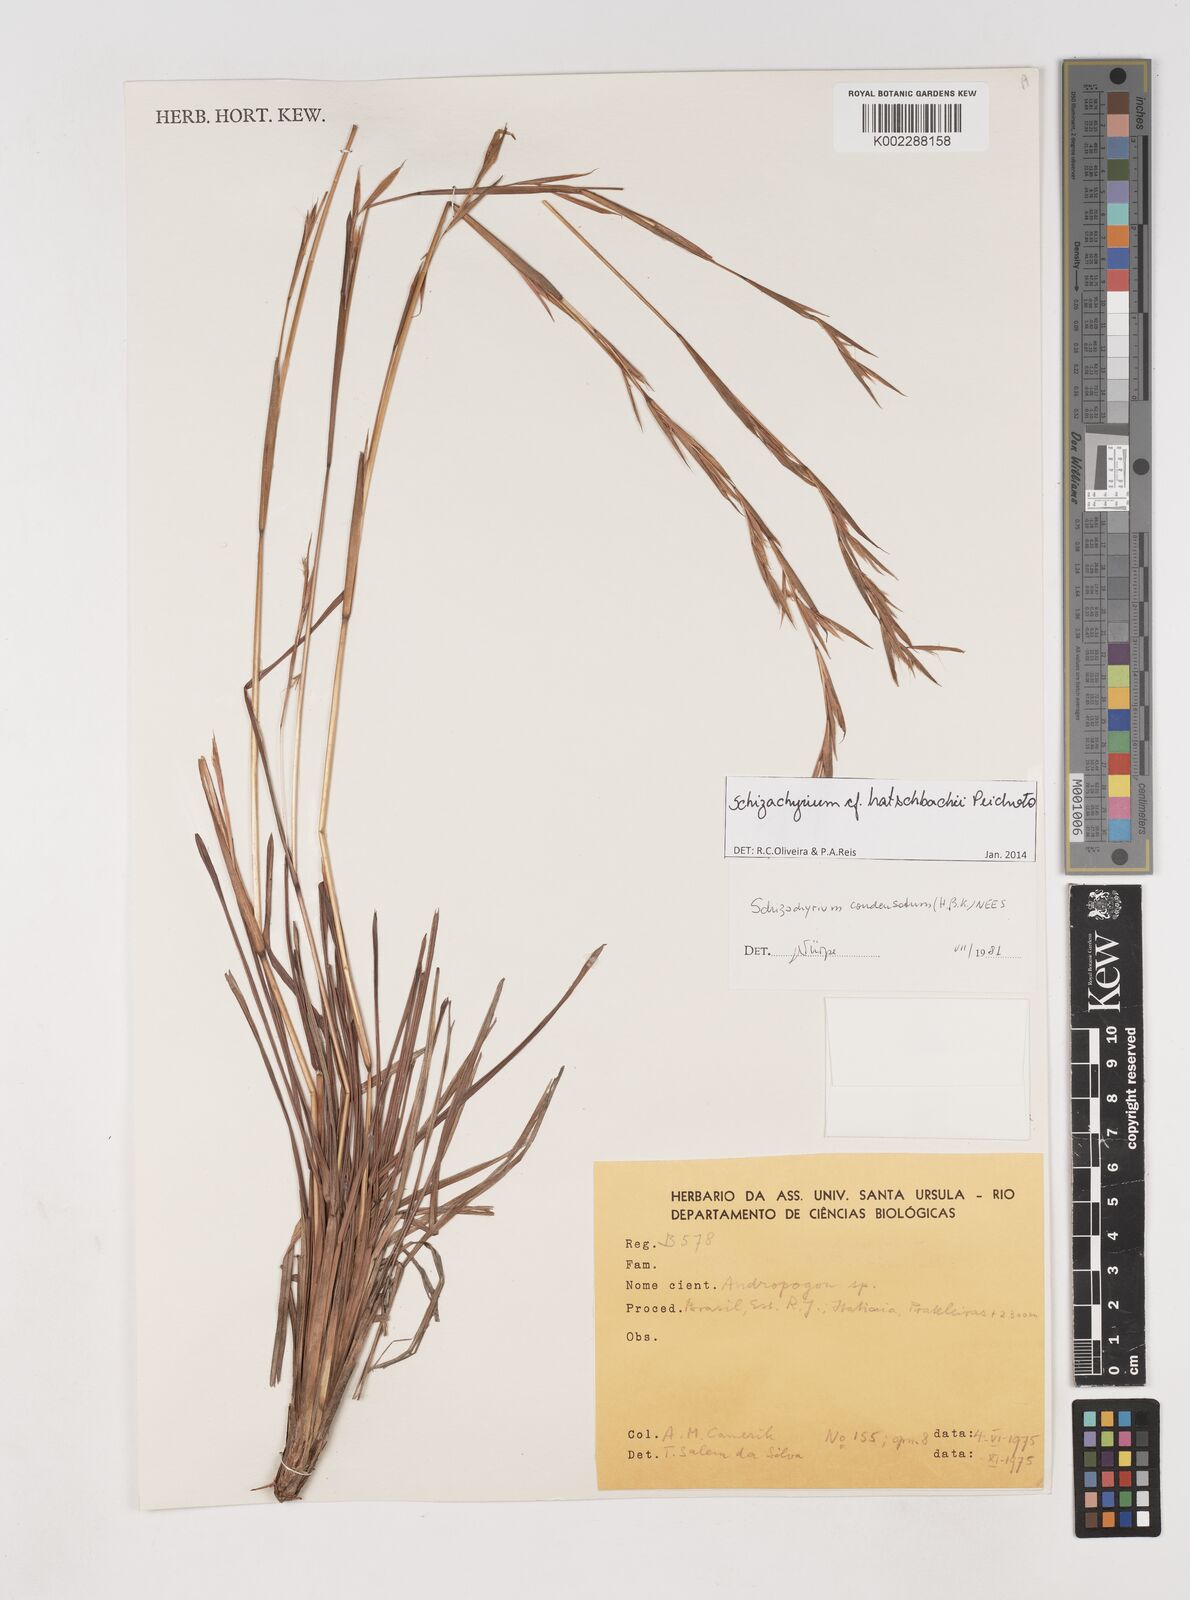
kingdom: Plantae
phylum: Tracheophyta
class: Liliopsida
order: Poales
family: Poaceae
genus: Schizachyrium
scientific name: Schizachyrium hatschbachii
